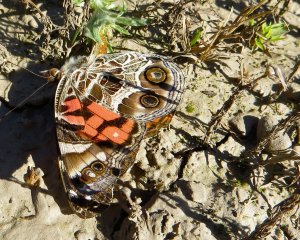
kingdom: Animalia
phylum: Arthropoda
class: Insecta
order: Lepidoptera
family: Nymphalidae
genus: Vanessa
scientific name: Vanessa virginiensis
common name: American Lady
